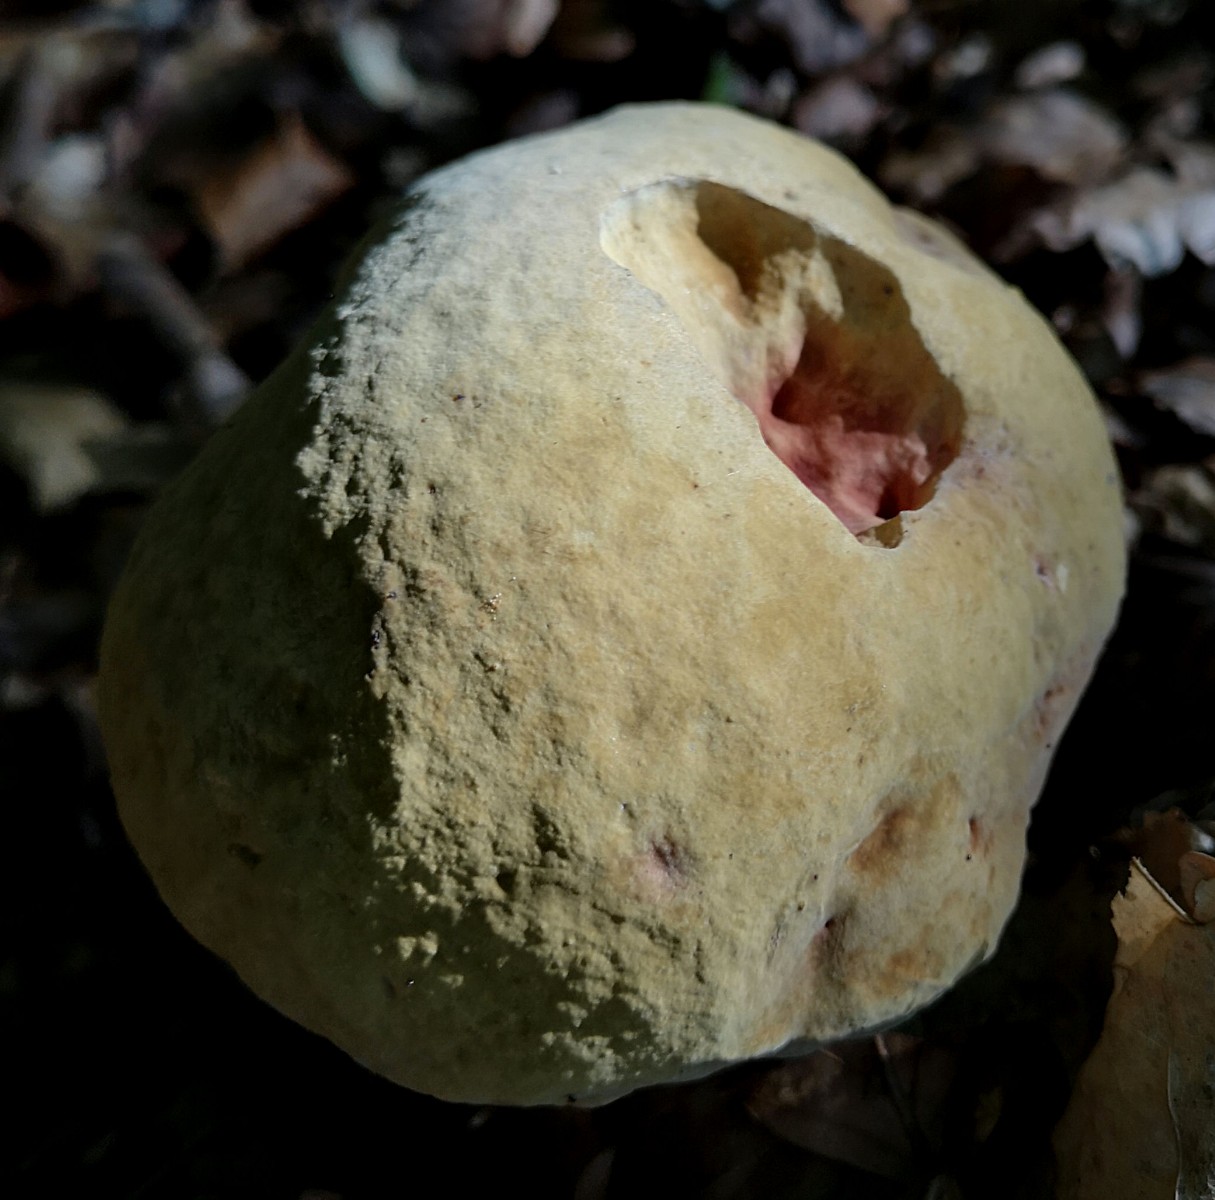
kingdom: Fungi
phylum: Basidiomycota
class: Agaricomycetes
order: Boletales
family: Boletaceae
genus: Suillellus
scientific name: Suillellus luridus
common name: netstokket indigorørhat
